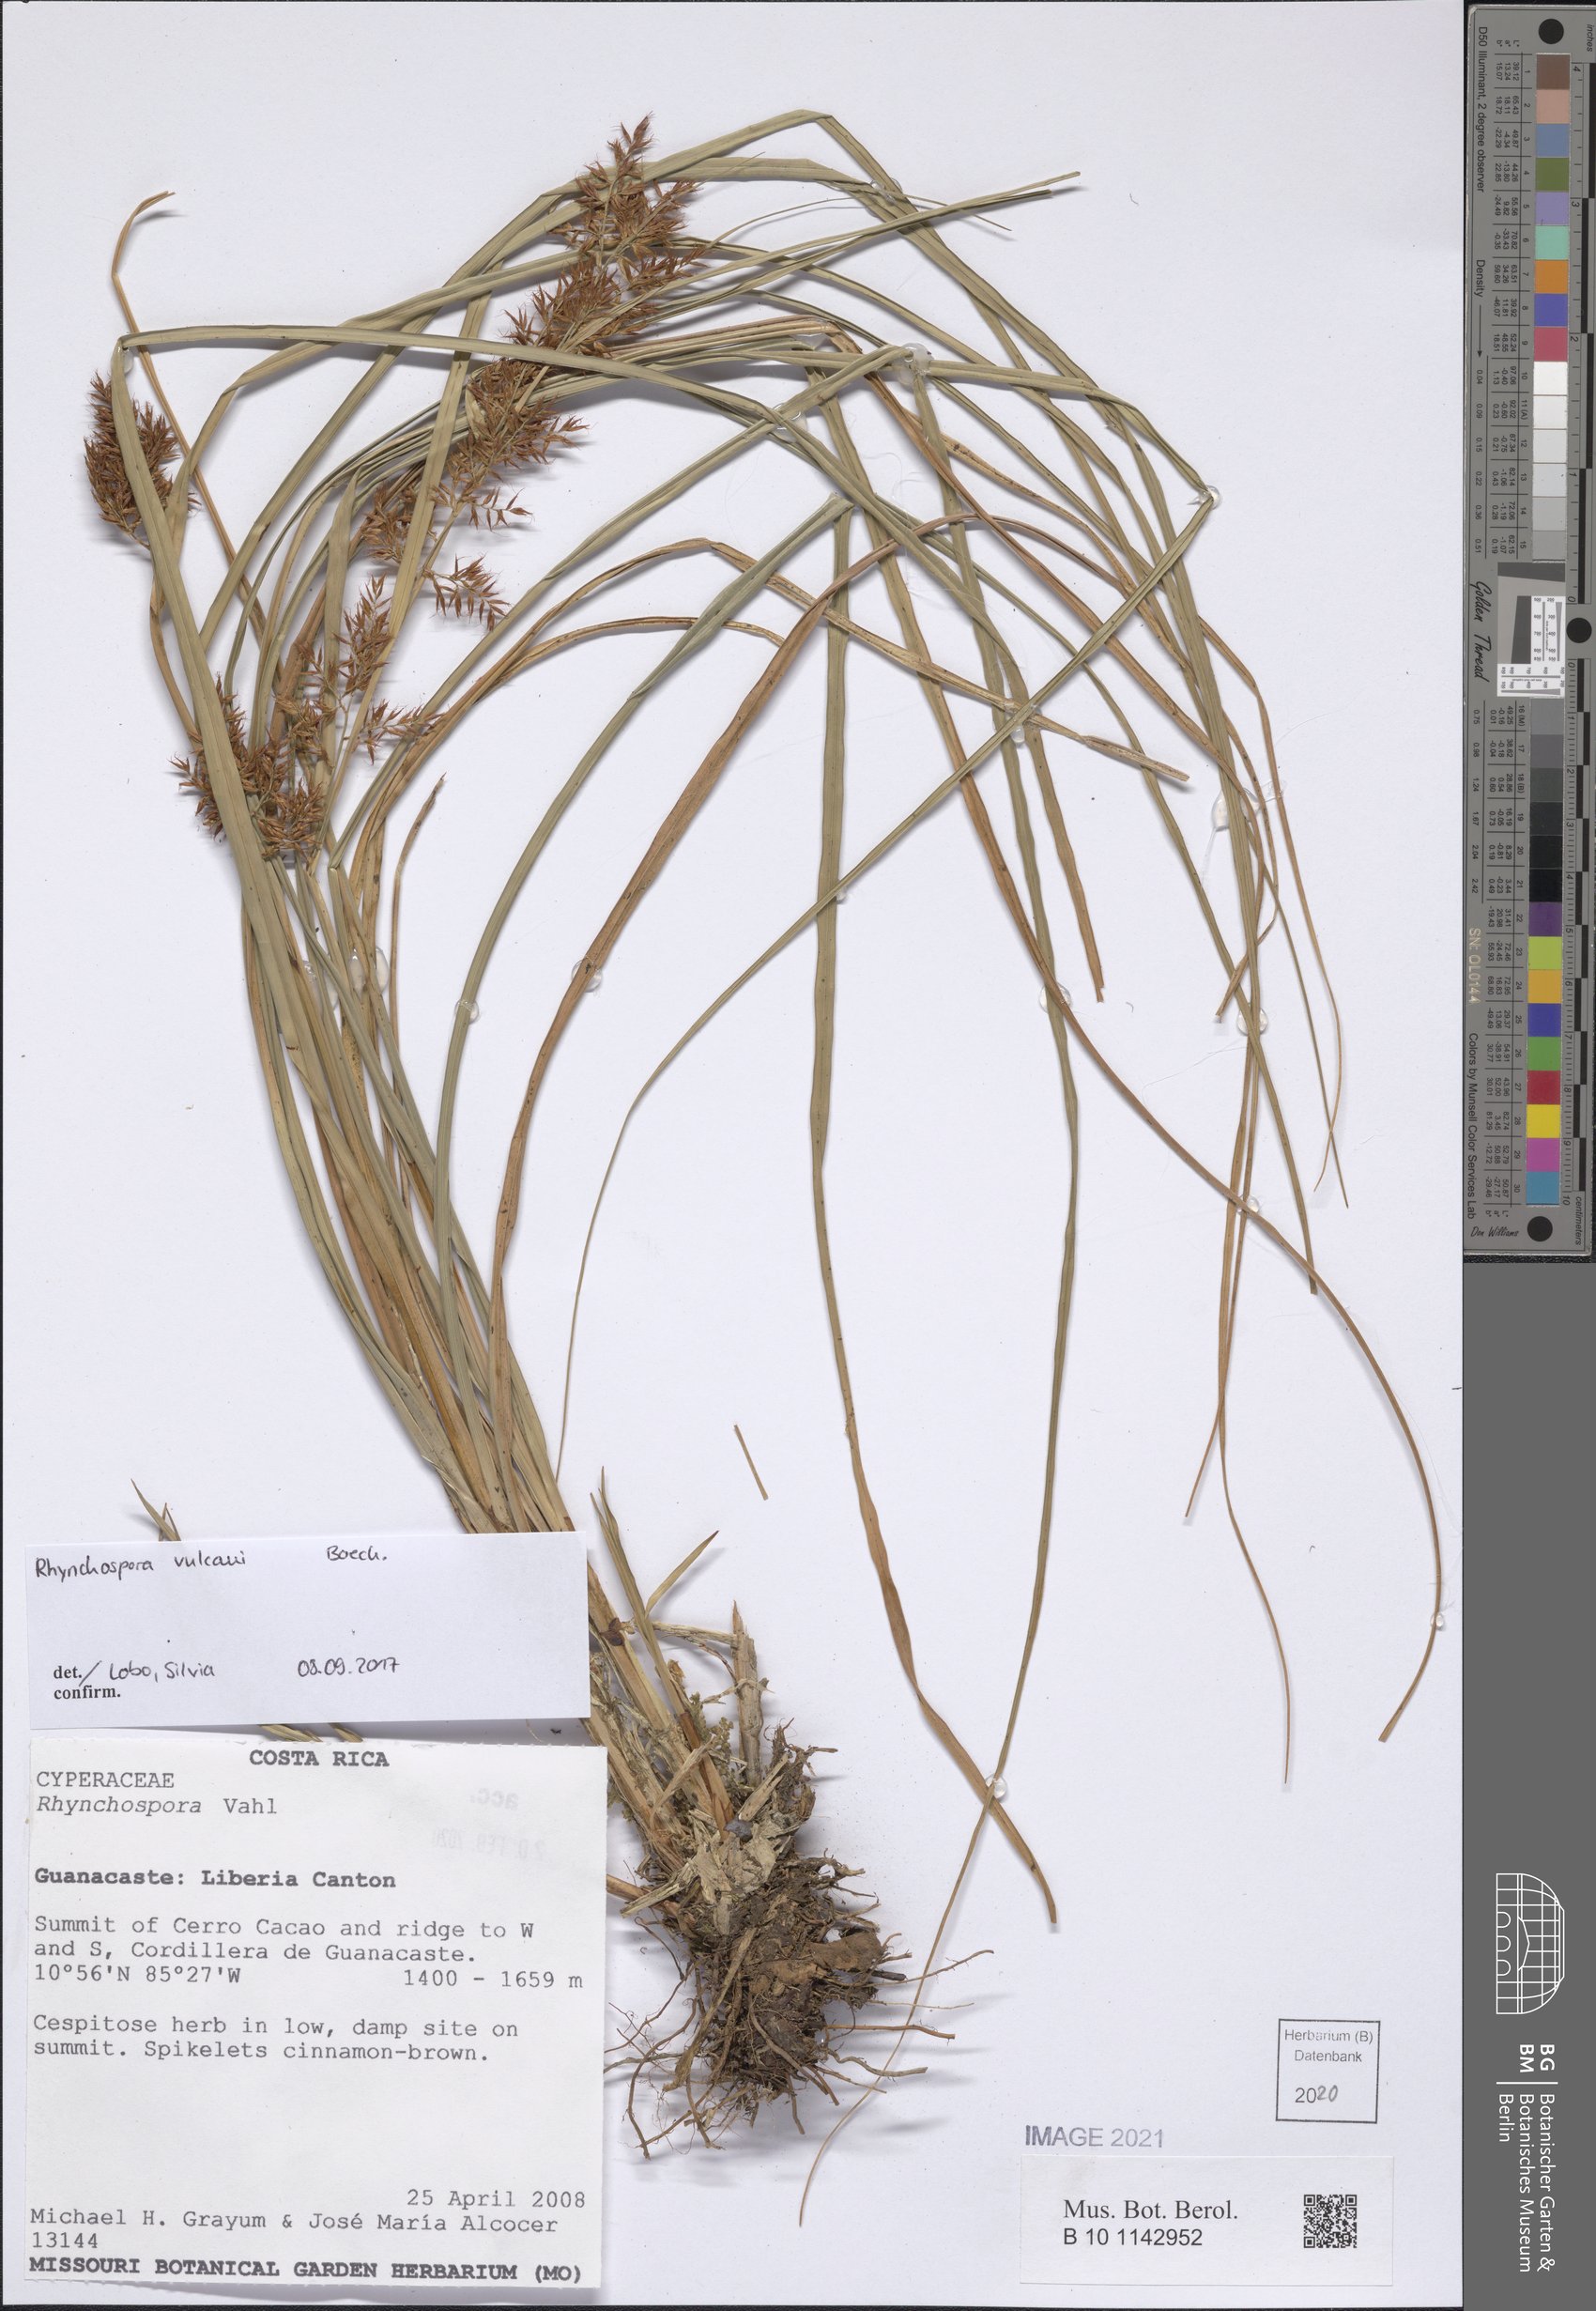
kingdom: Plantae
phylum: Tracheophyta
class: Liliopsida
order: Poales
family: Cyperaceae
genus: Rhynchospora
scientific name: Rhynchospora vulcani
